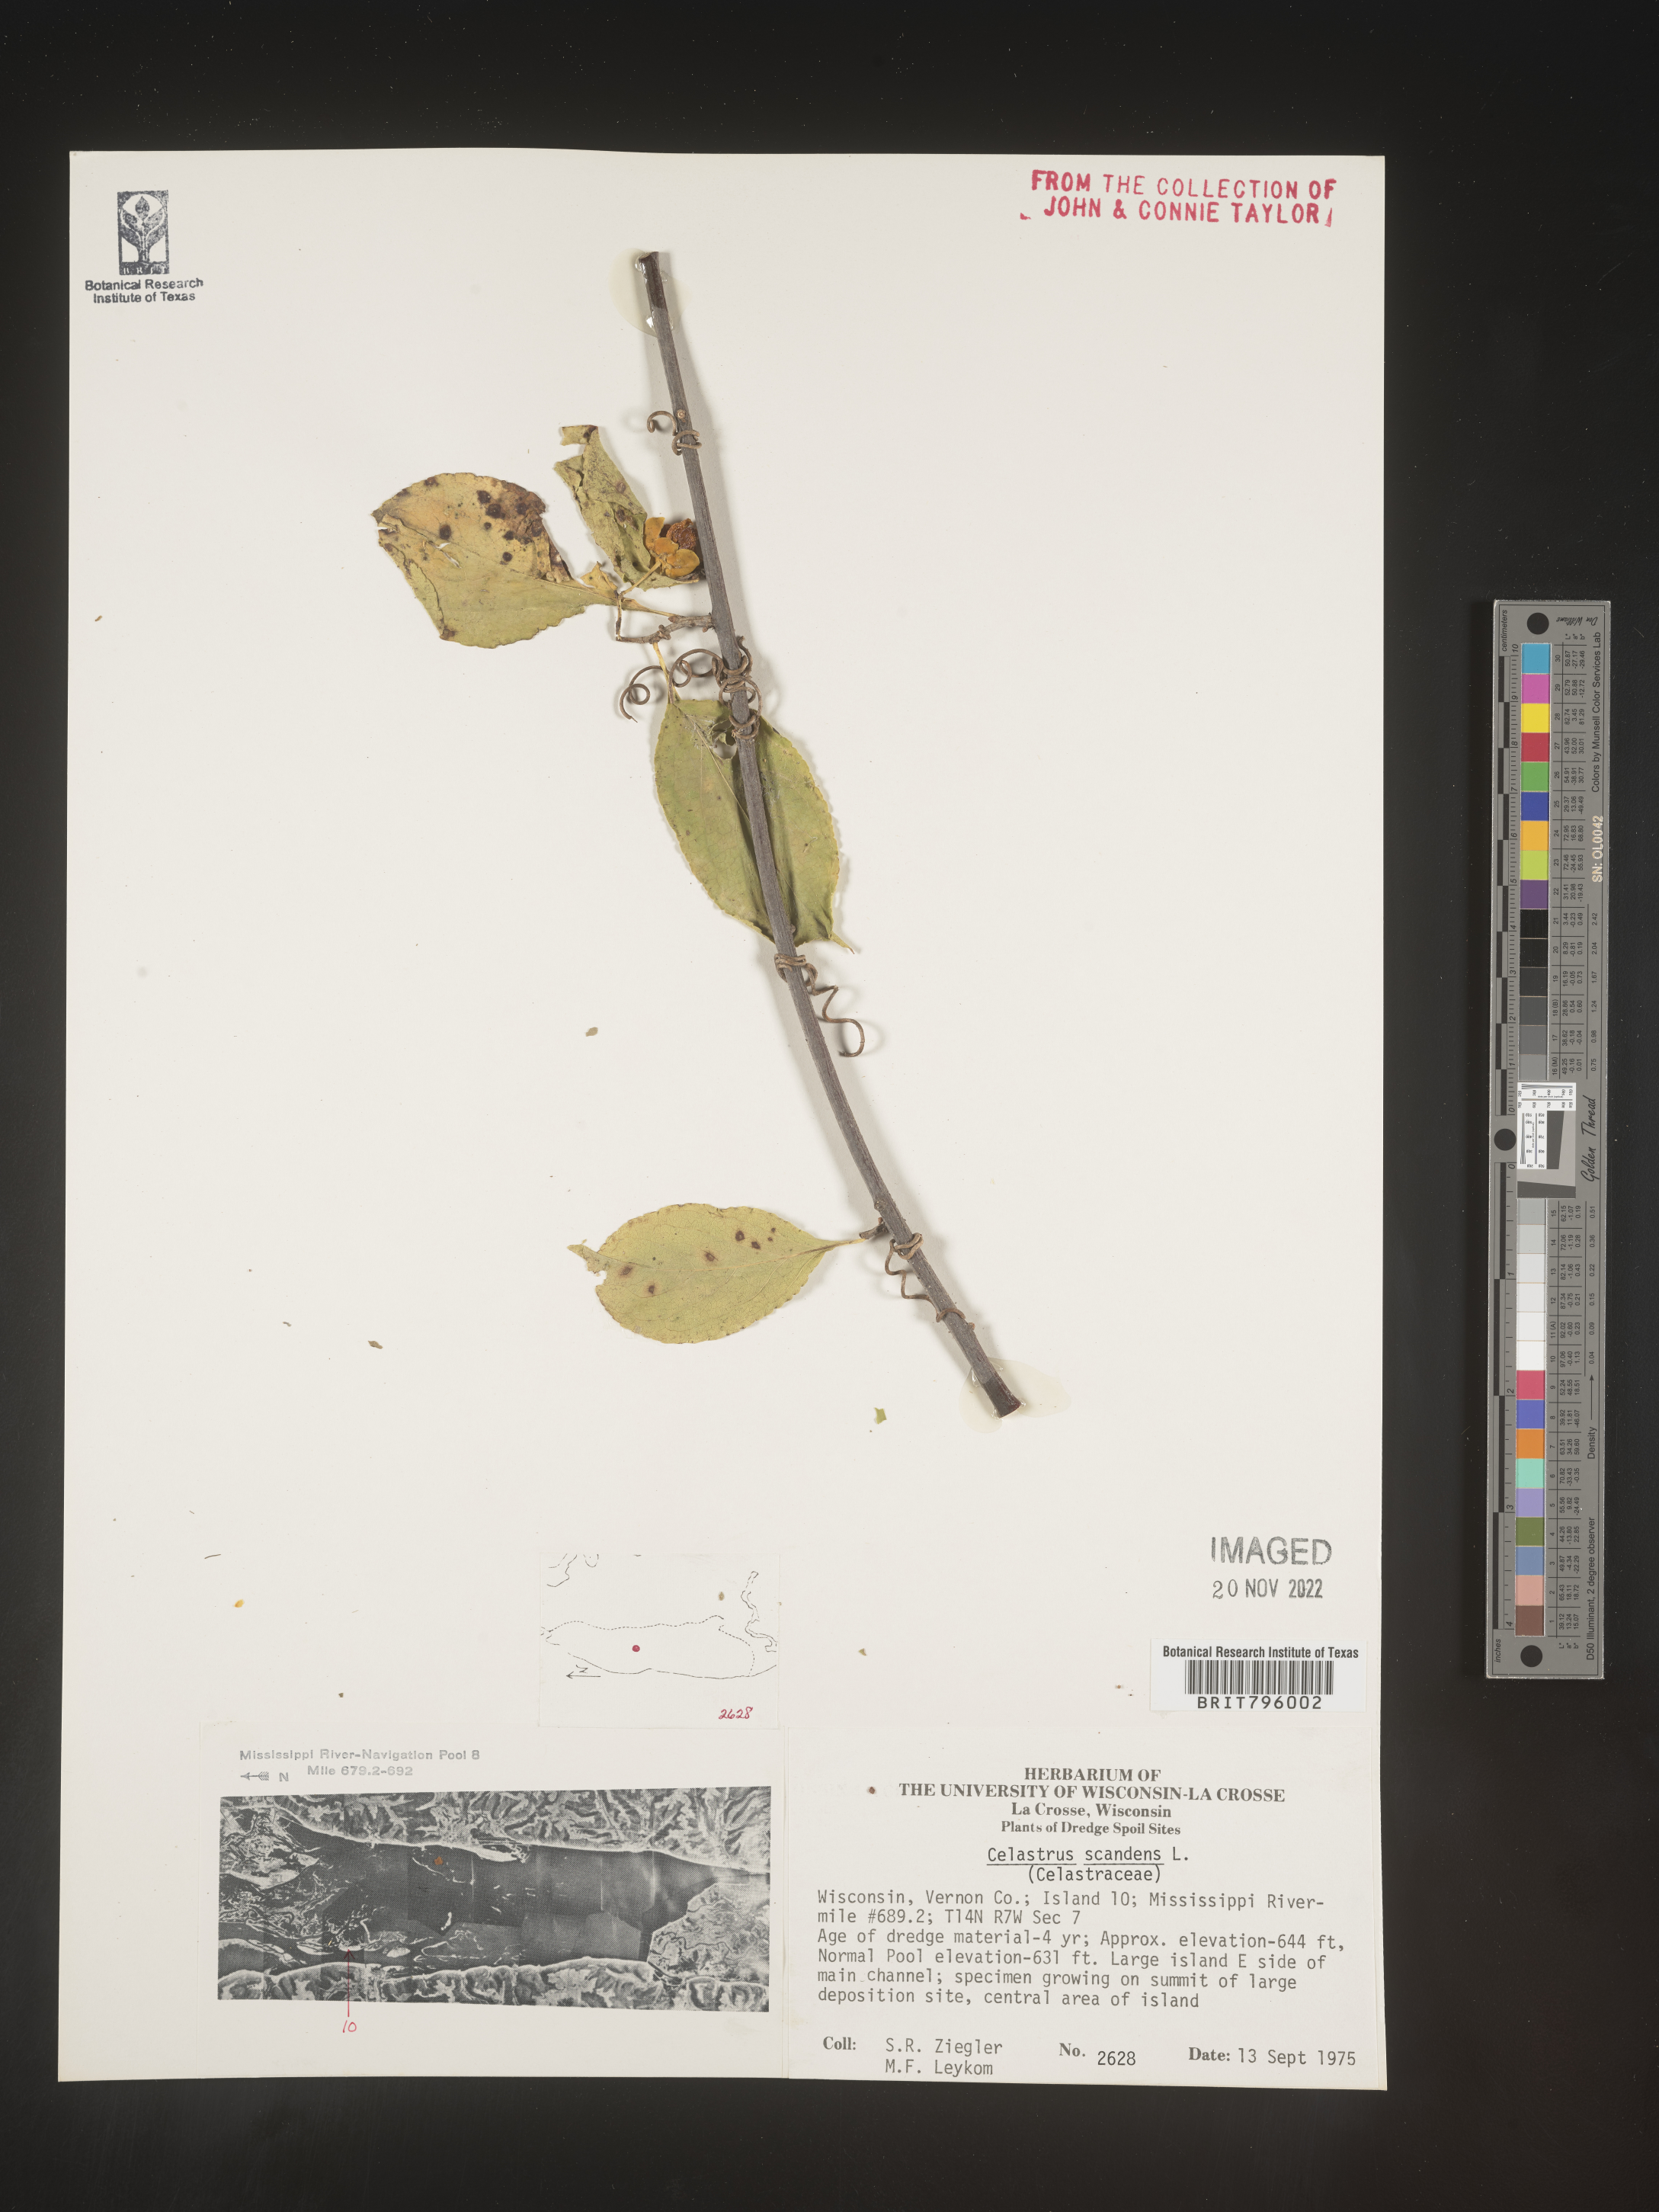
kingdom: Plantae
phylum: Tracheophyta
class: Magnoliopsida
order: Celastrales
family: Celastraceae
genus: Celastrus
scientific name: Celastrus
